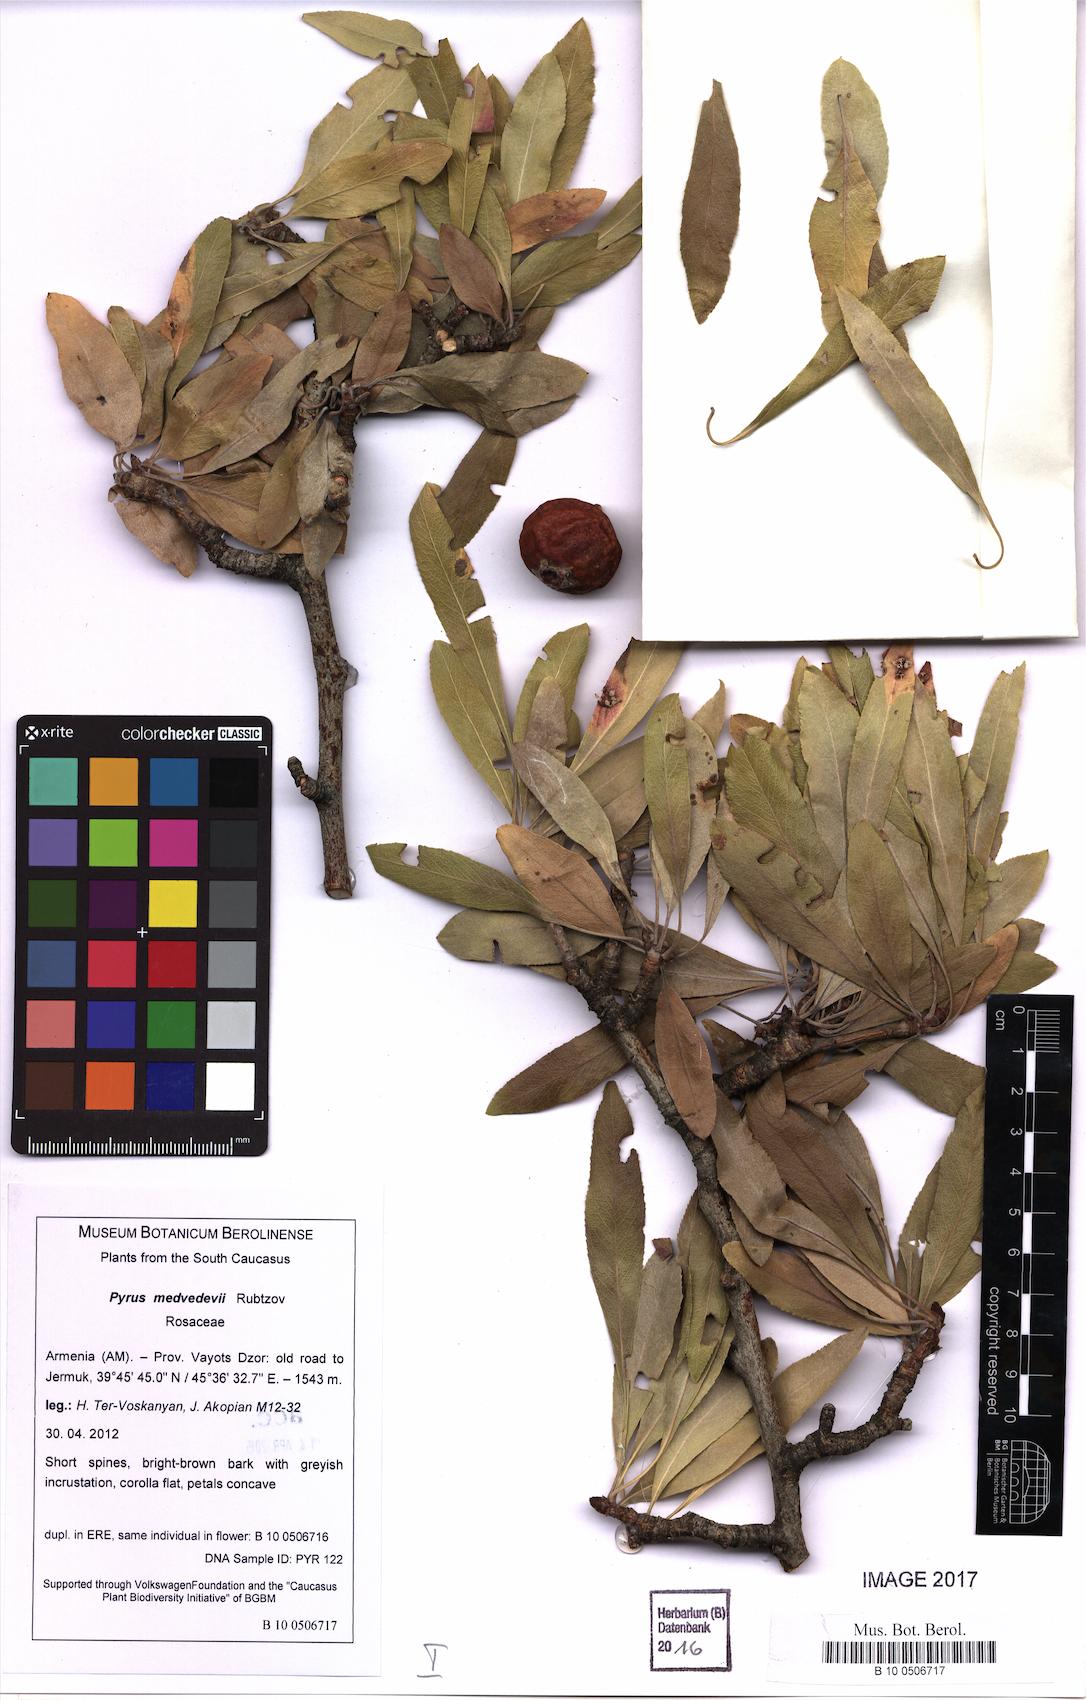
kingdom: Plantae
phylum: Tracheophyta
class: Magnoliopsida
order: Rosales
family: Rosaceae
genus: Pyrus
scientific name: Pyrus medvedevii
